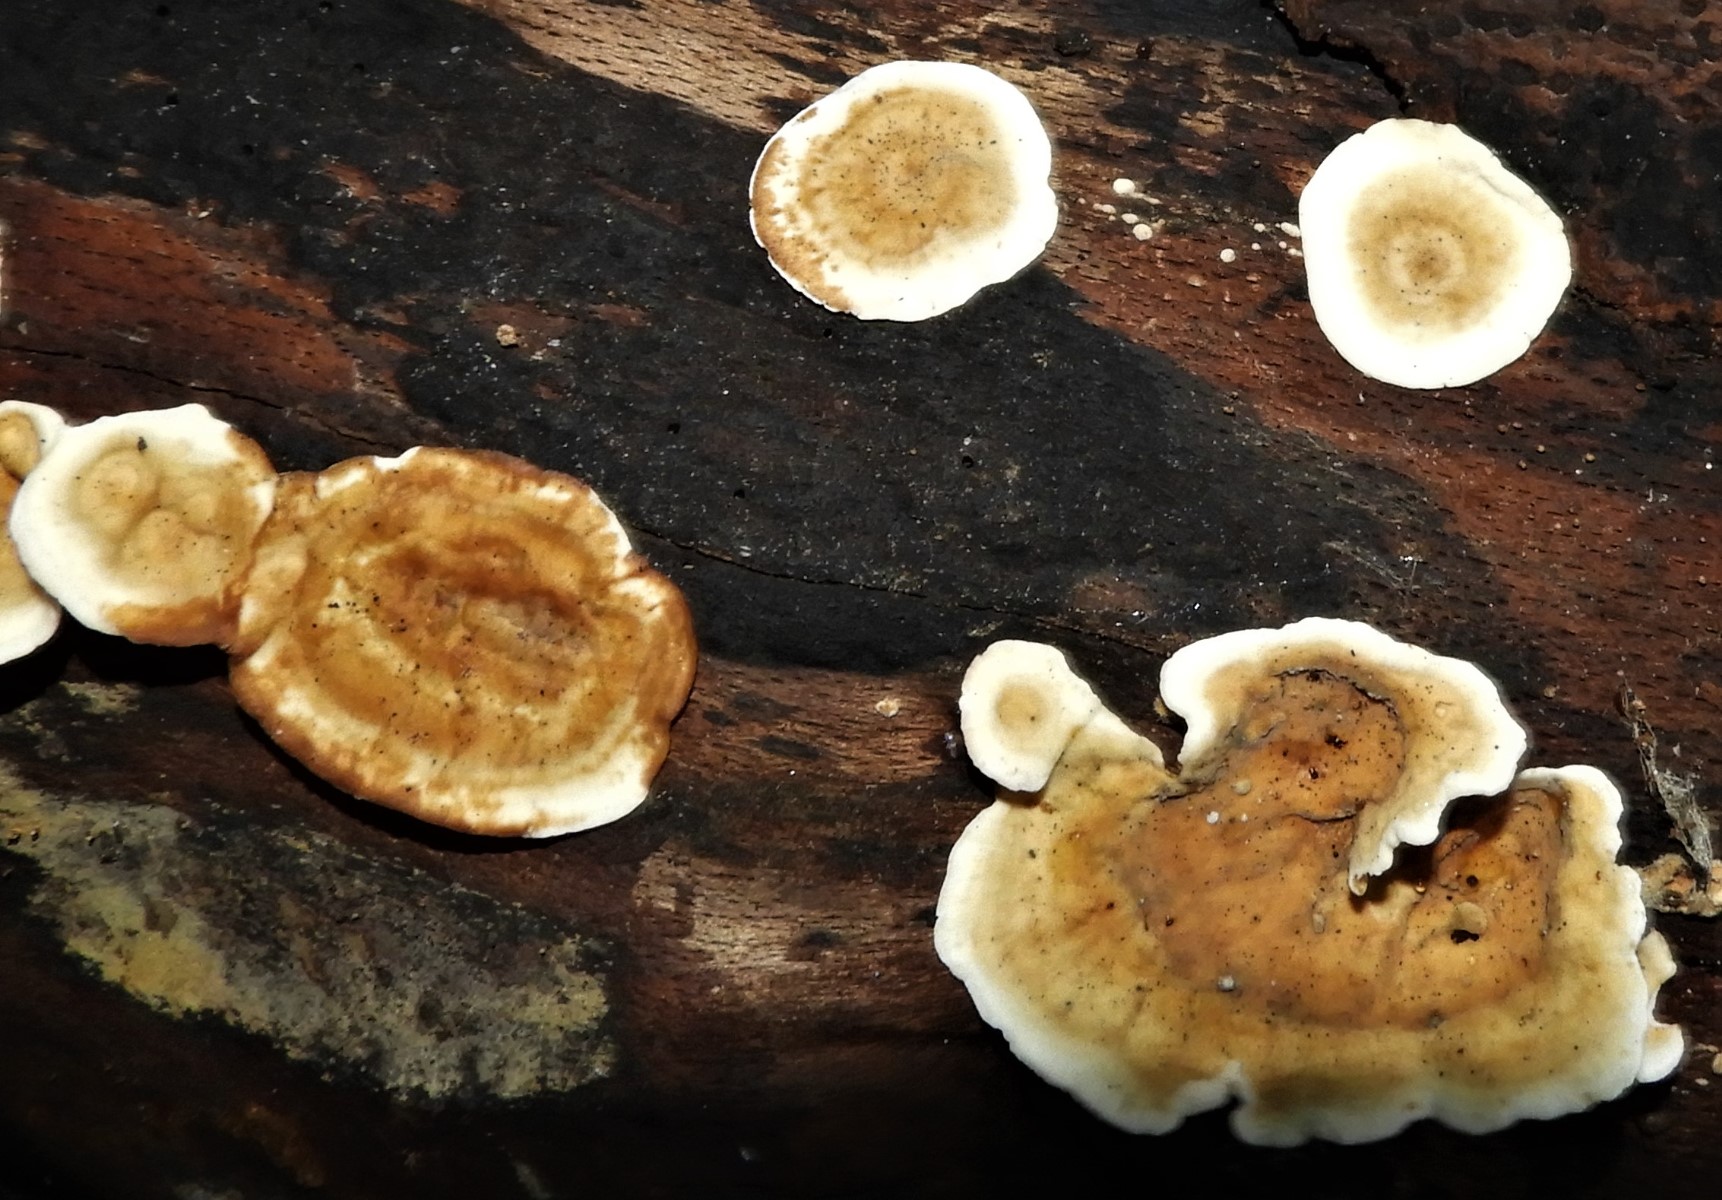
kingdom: Fungi
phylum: Basidiomycota
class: Agaricomycetes
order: Russulales
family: Stereaceae
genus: Stereum
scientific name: Stereum hirsutum
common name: håret lædersvamp
